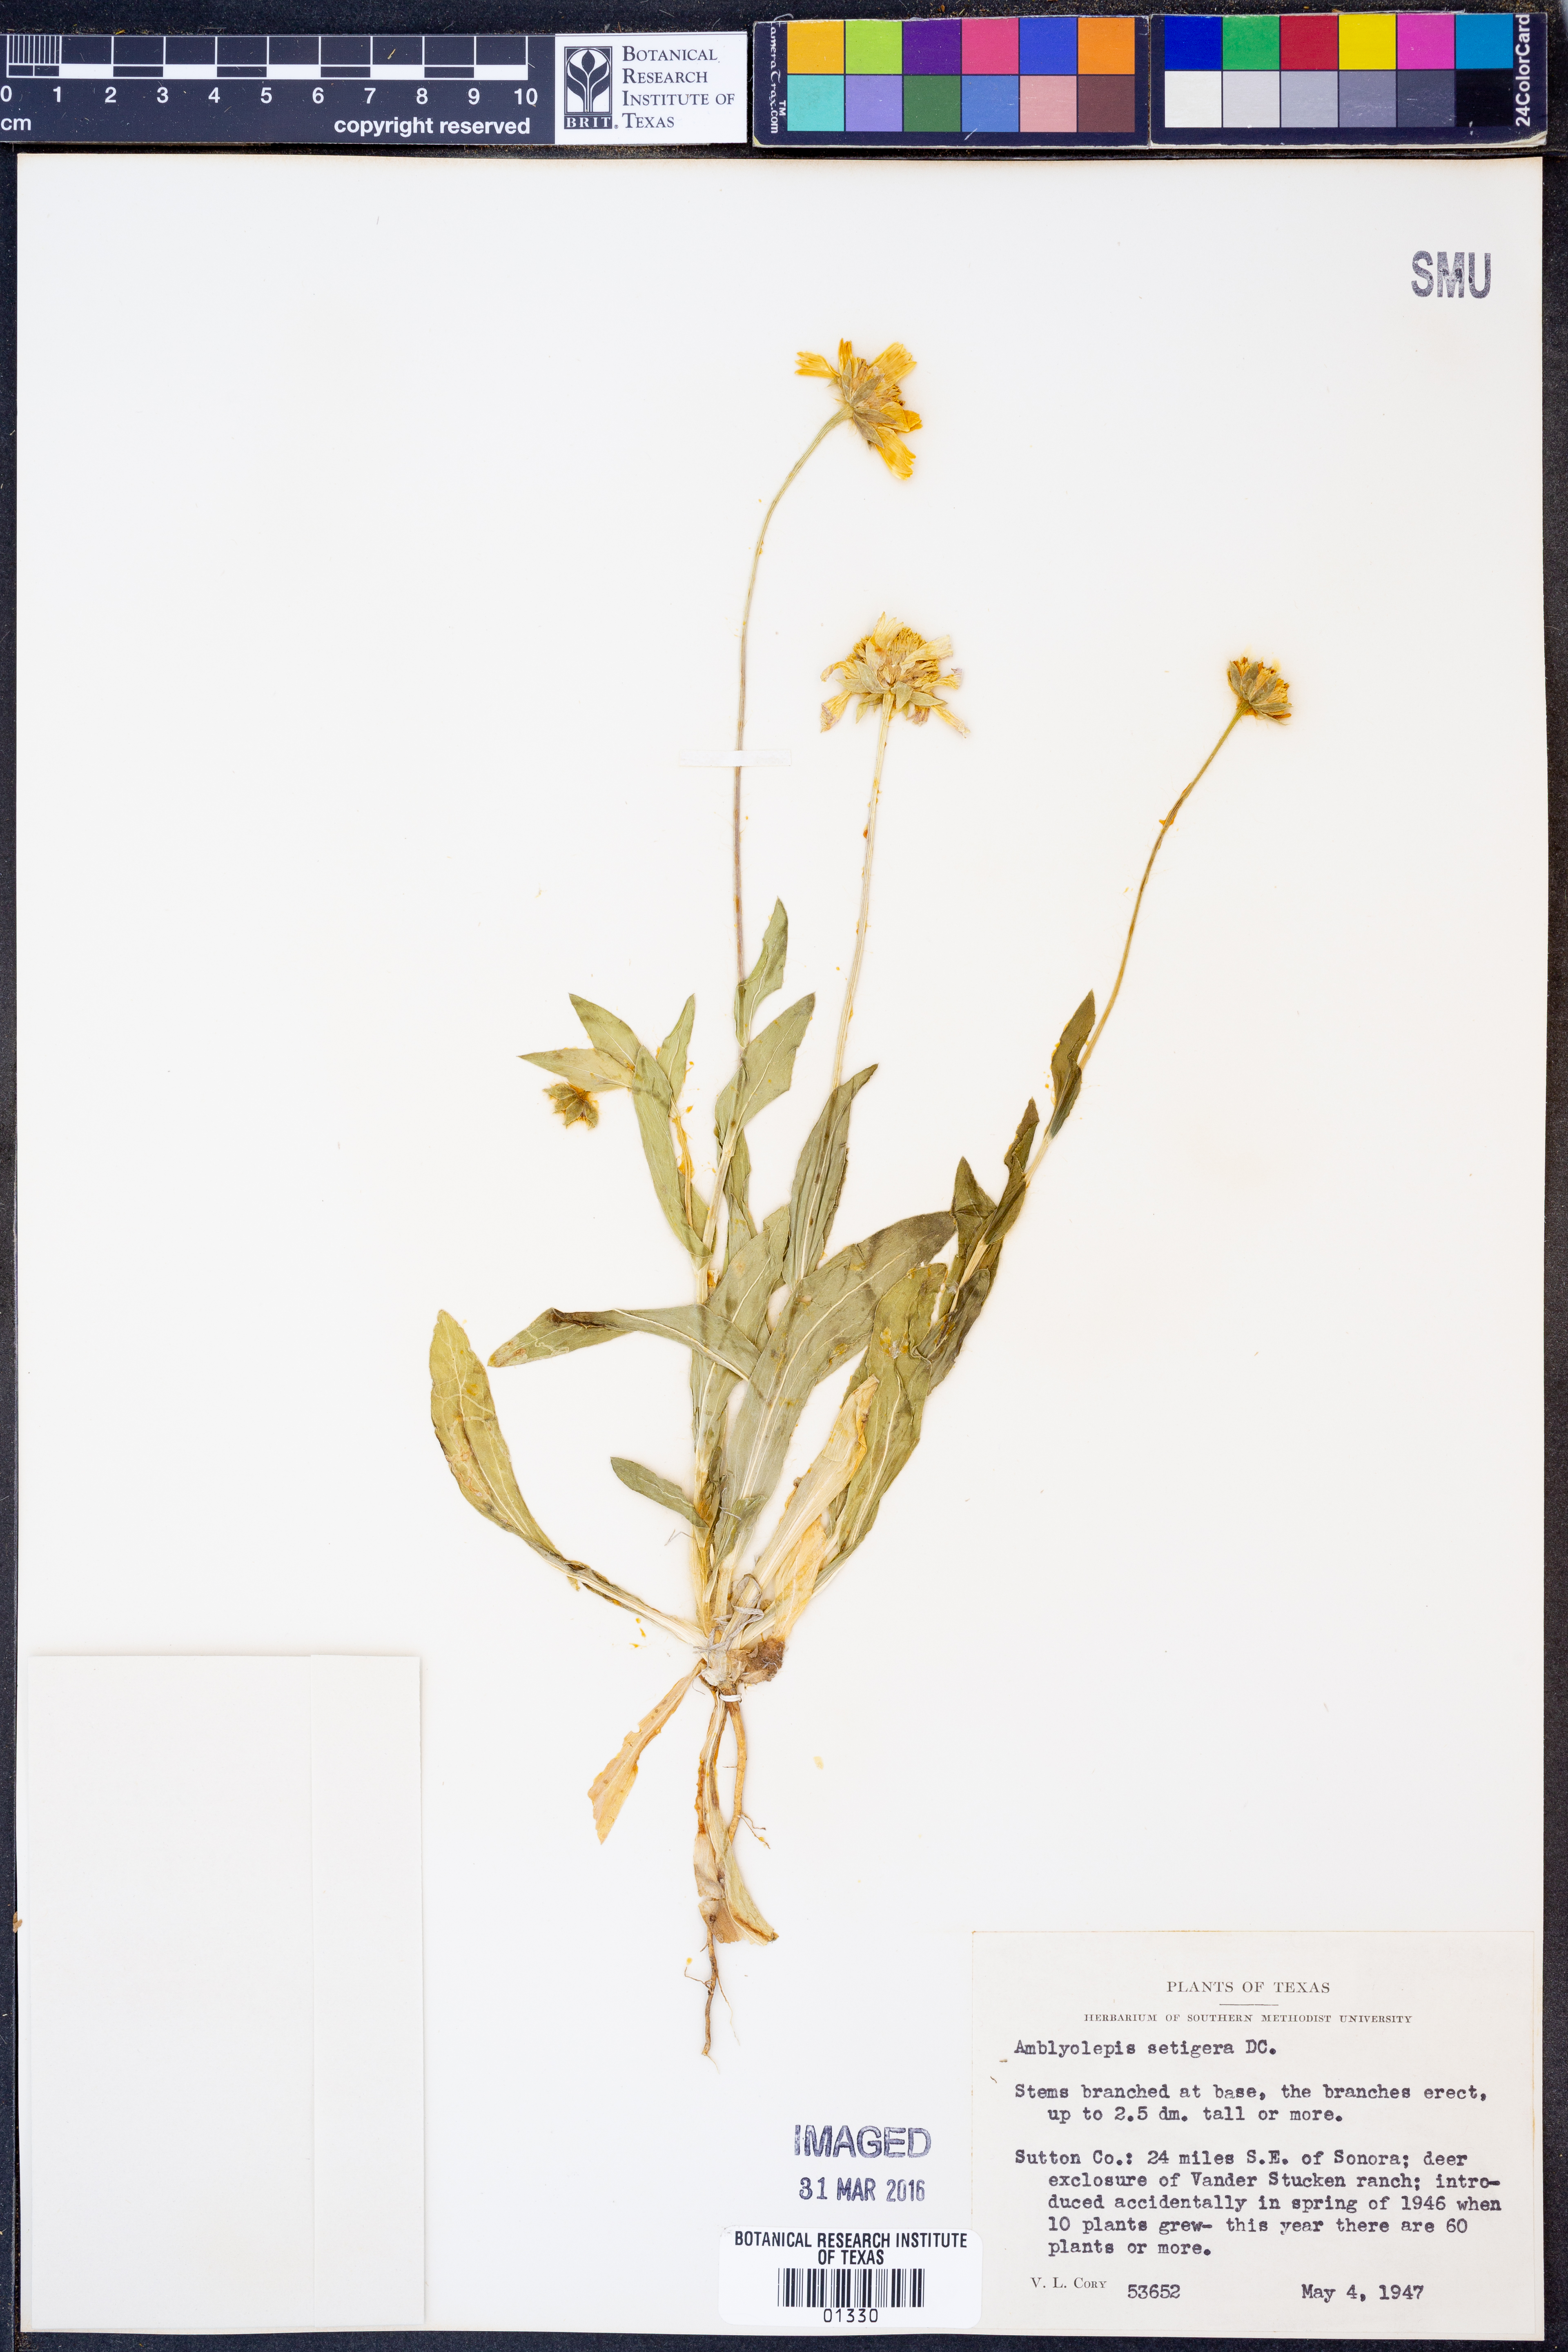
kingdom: Plantae
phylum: Tracheophyta
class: Magnoliopsida
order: Asterales
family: Asteraceae
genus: Amblyolepis
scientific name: Amblyolepis setigera
